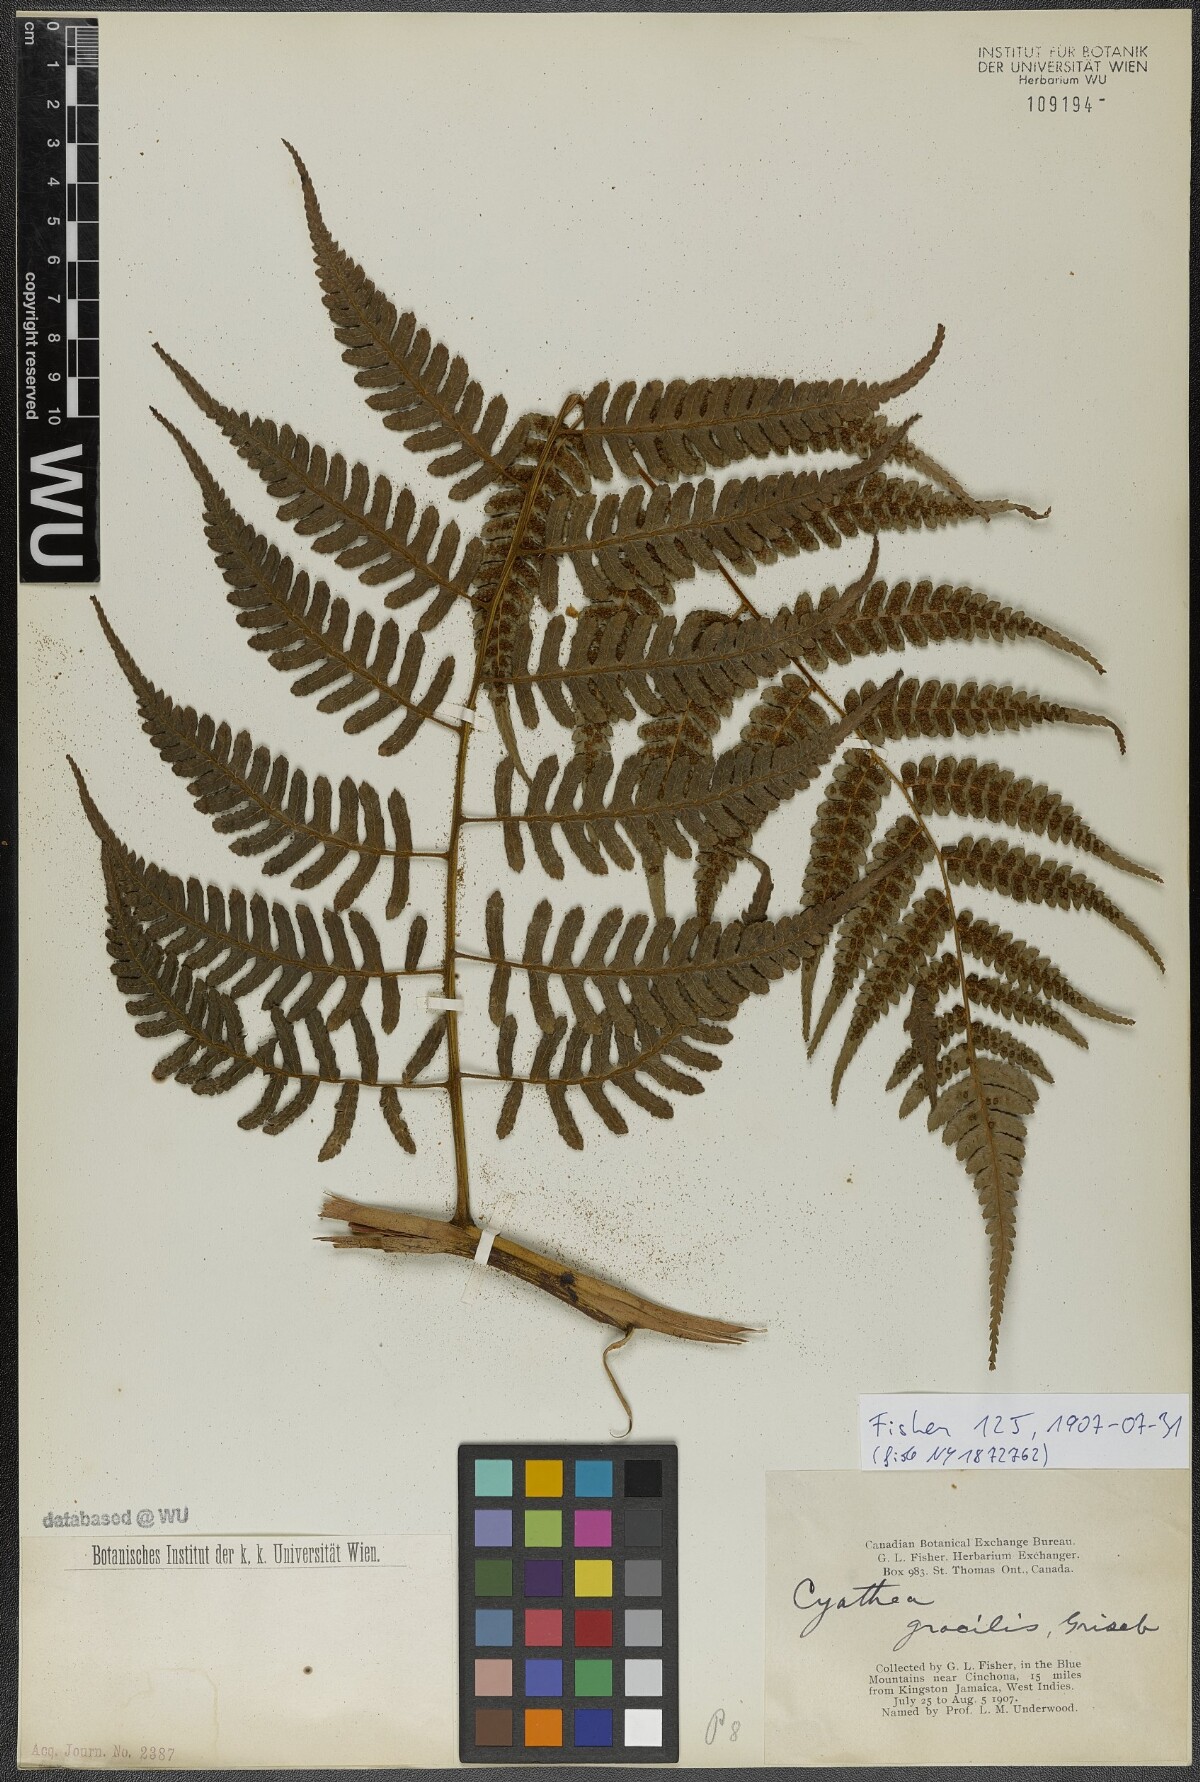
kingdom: Plantae
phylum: Tracheophyta
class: Polypodiopsida
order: Cyatheales
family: Cyatheaceae
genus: Cyathea
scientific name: Cyathea gracilis
